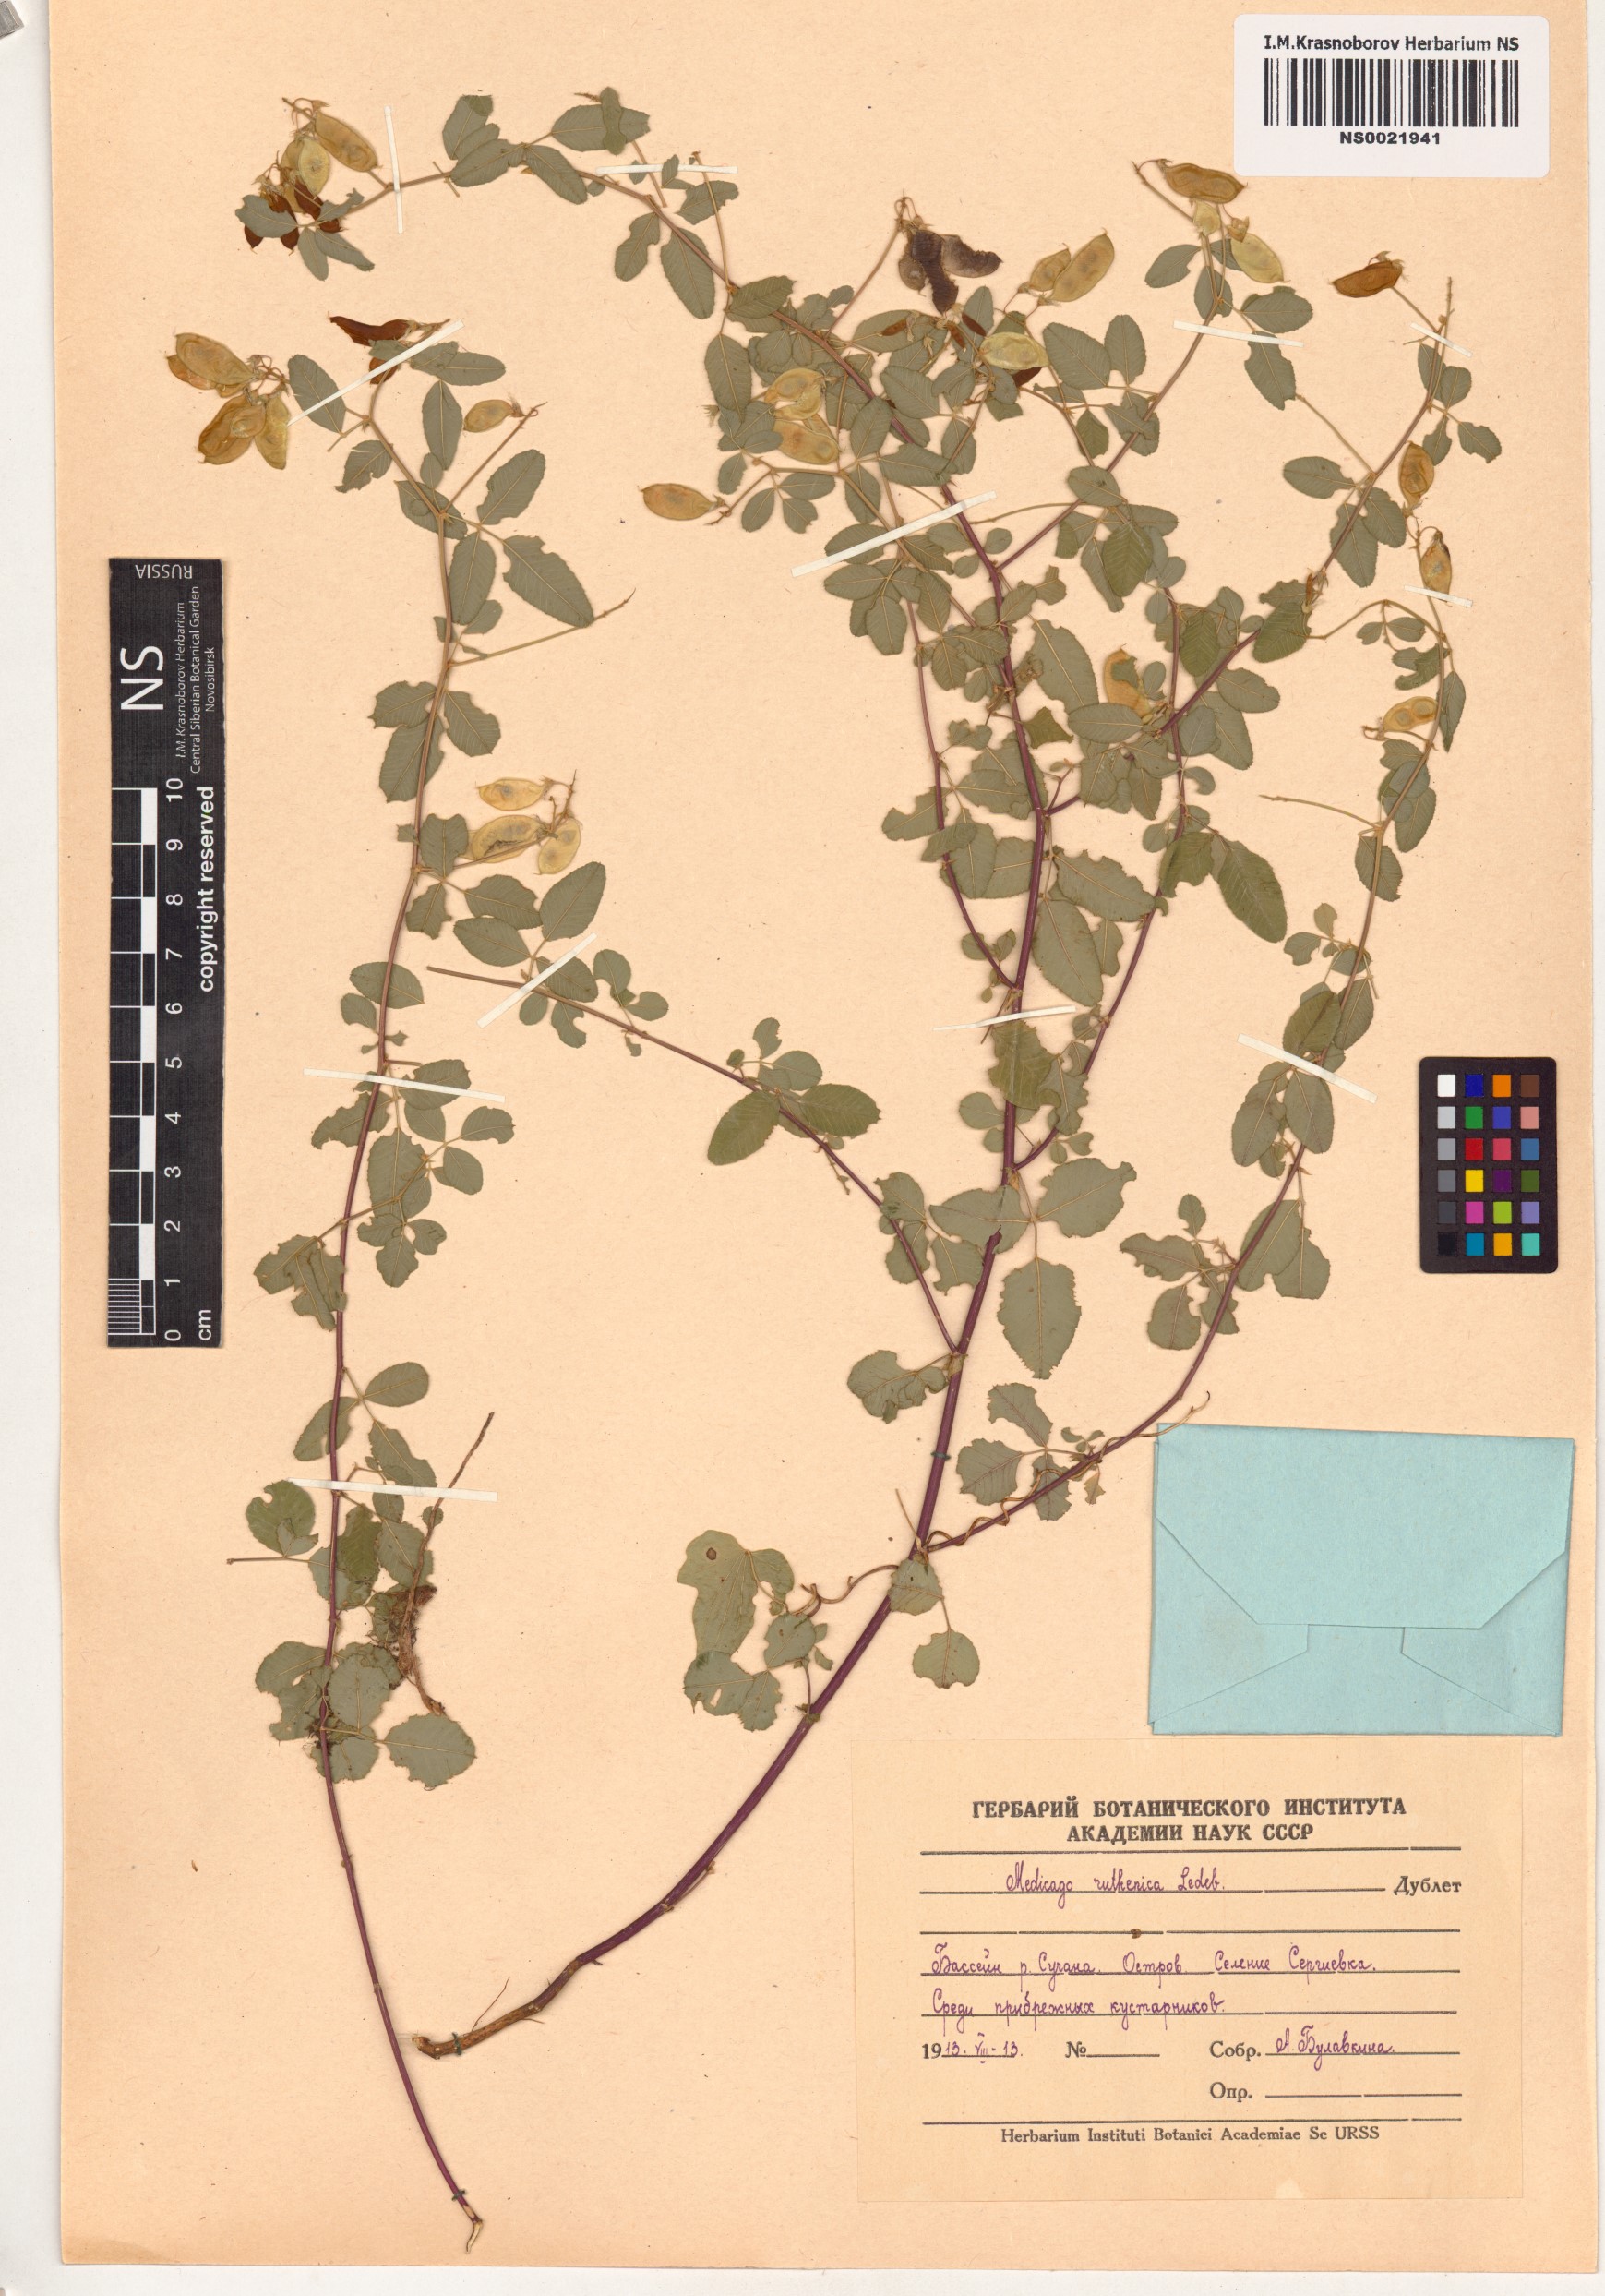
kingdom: Plantae
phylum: Tracheophyta
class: Magnoliopsida
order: Fabales
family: Fabaceae
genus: Medicago
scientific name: Medicago ruthenica
